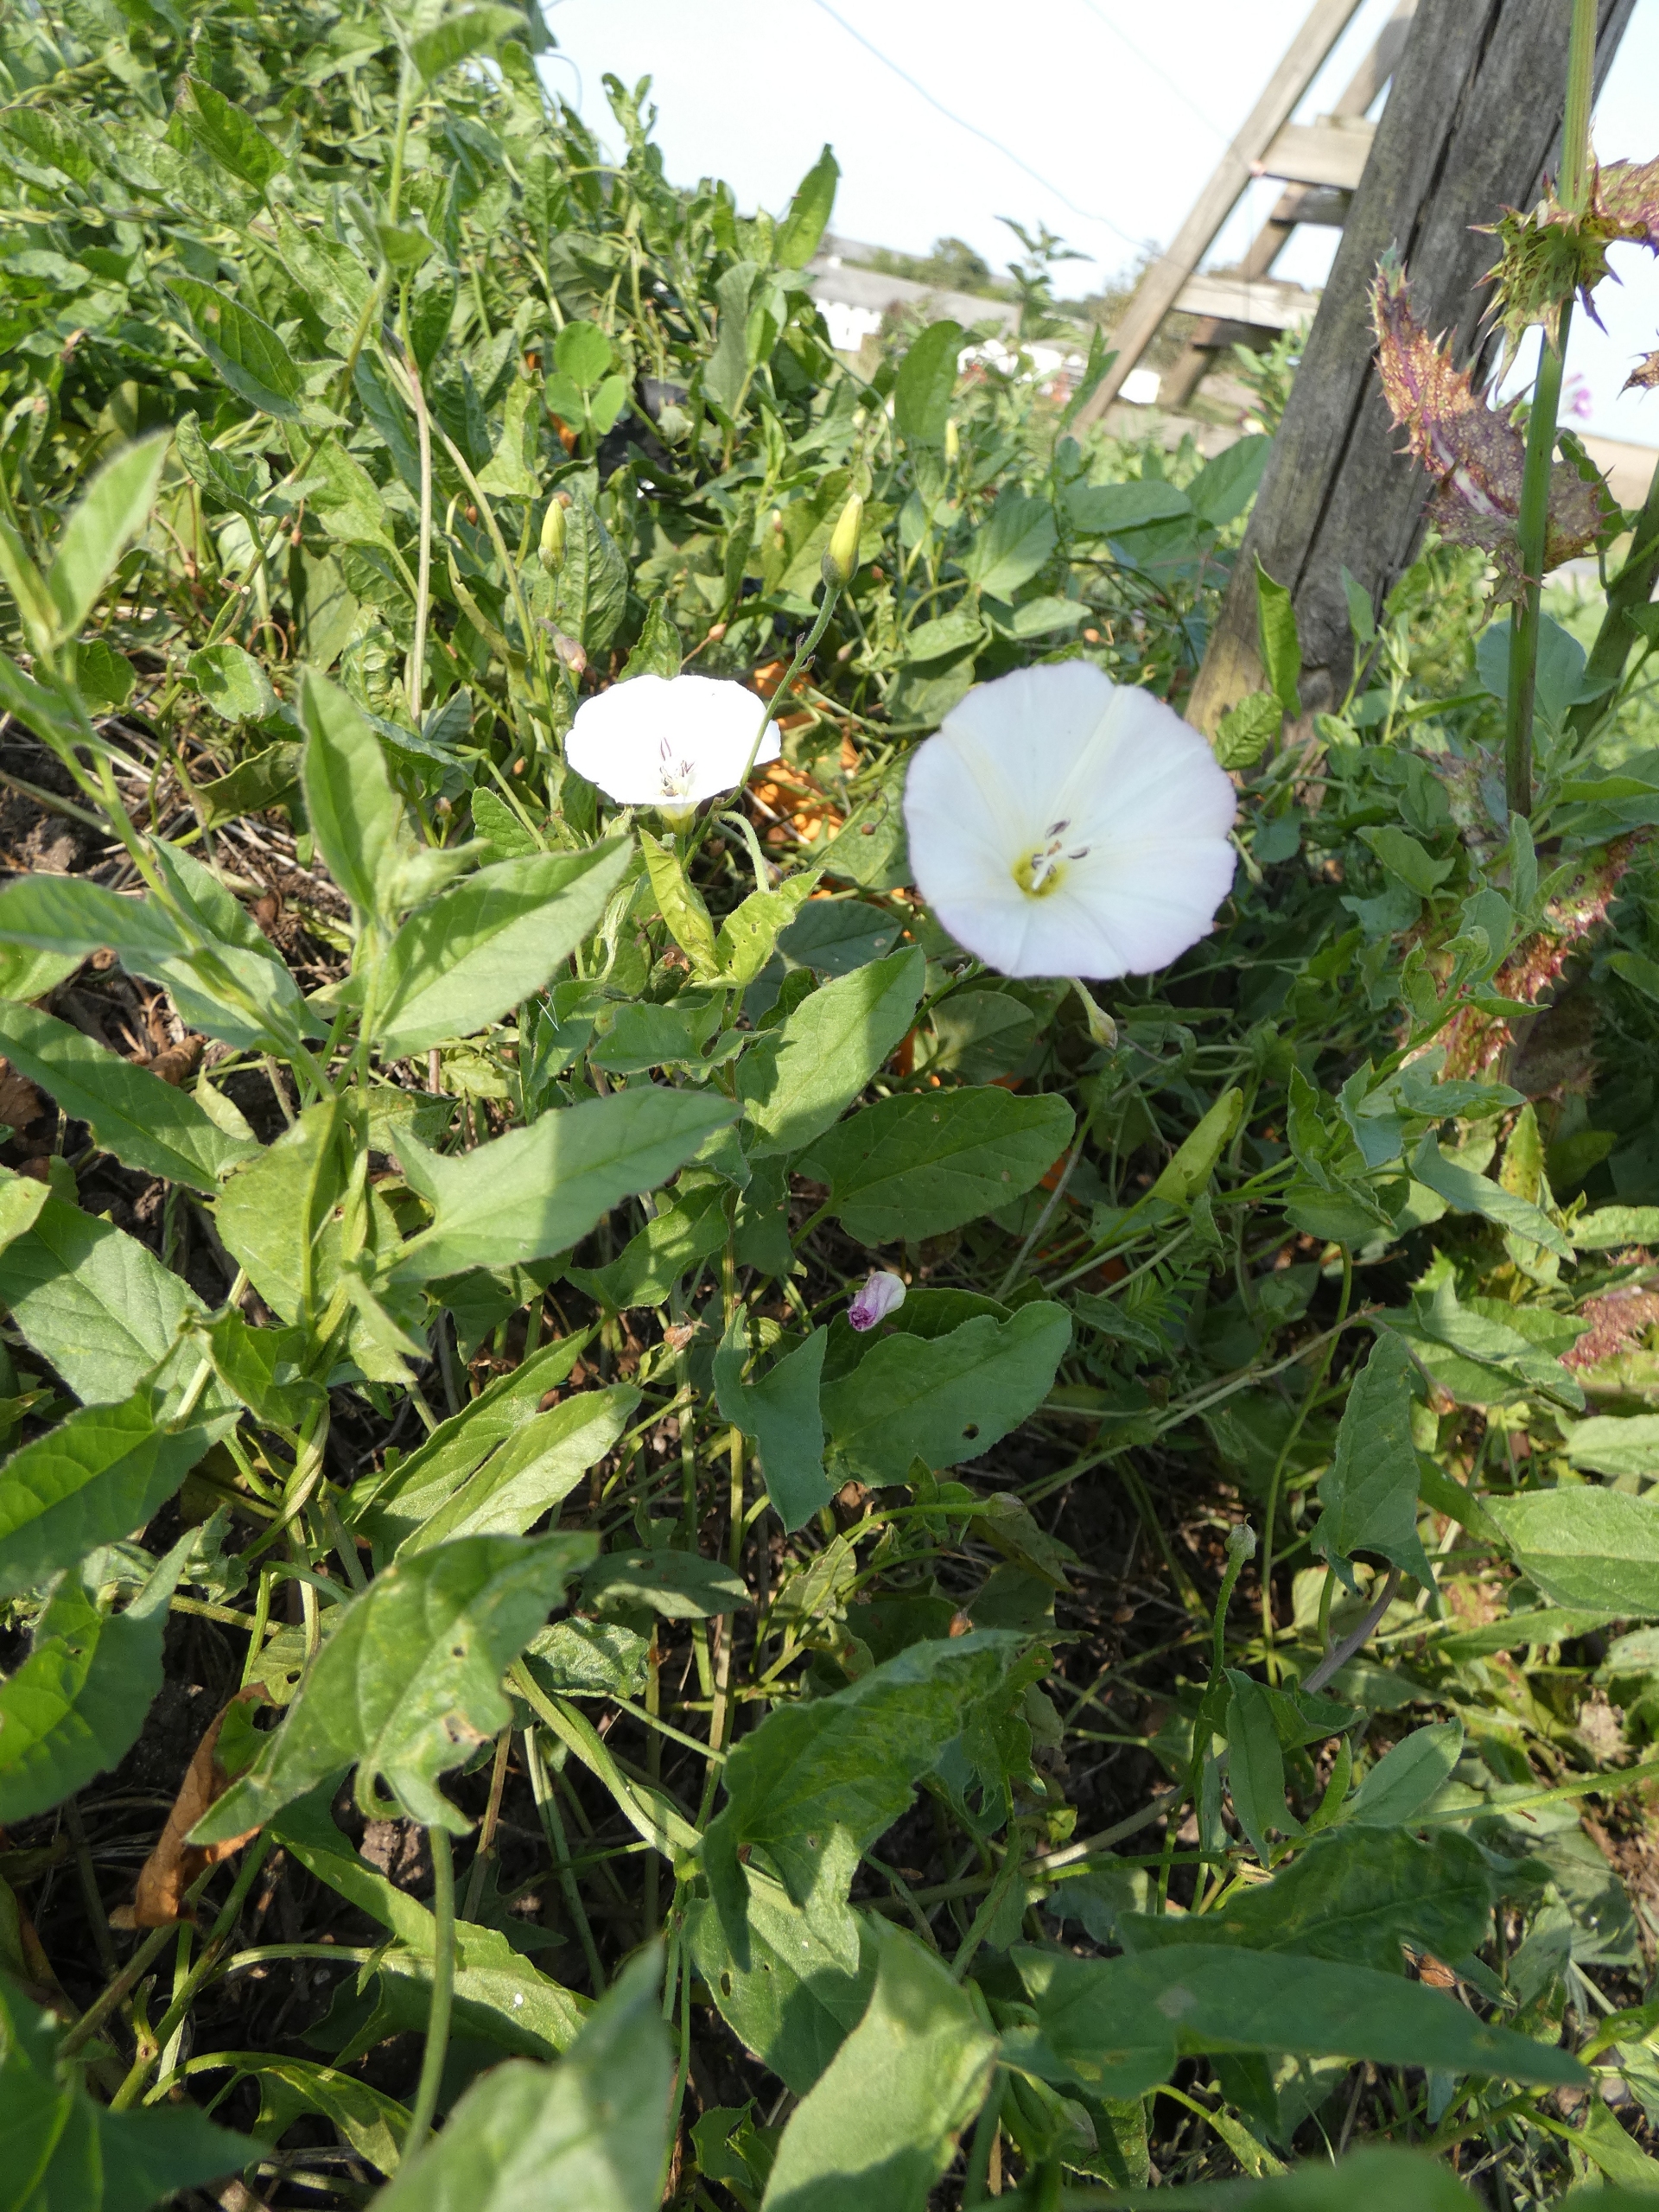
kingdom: Plantae
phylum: Tracheophyta
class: Magnoliopsida
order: Solanales
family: Convolvulaceae
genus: Convolvulus
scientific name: Convolvulus arvensis
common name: Ager-snerle
